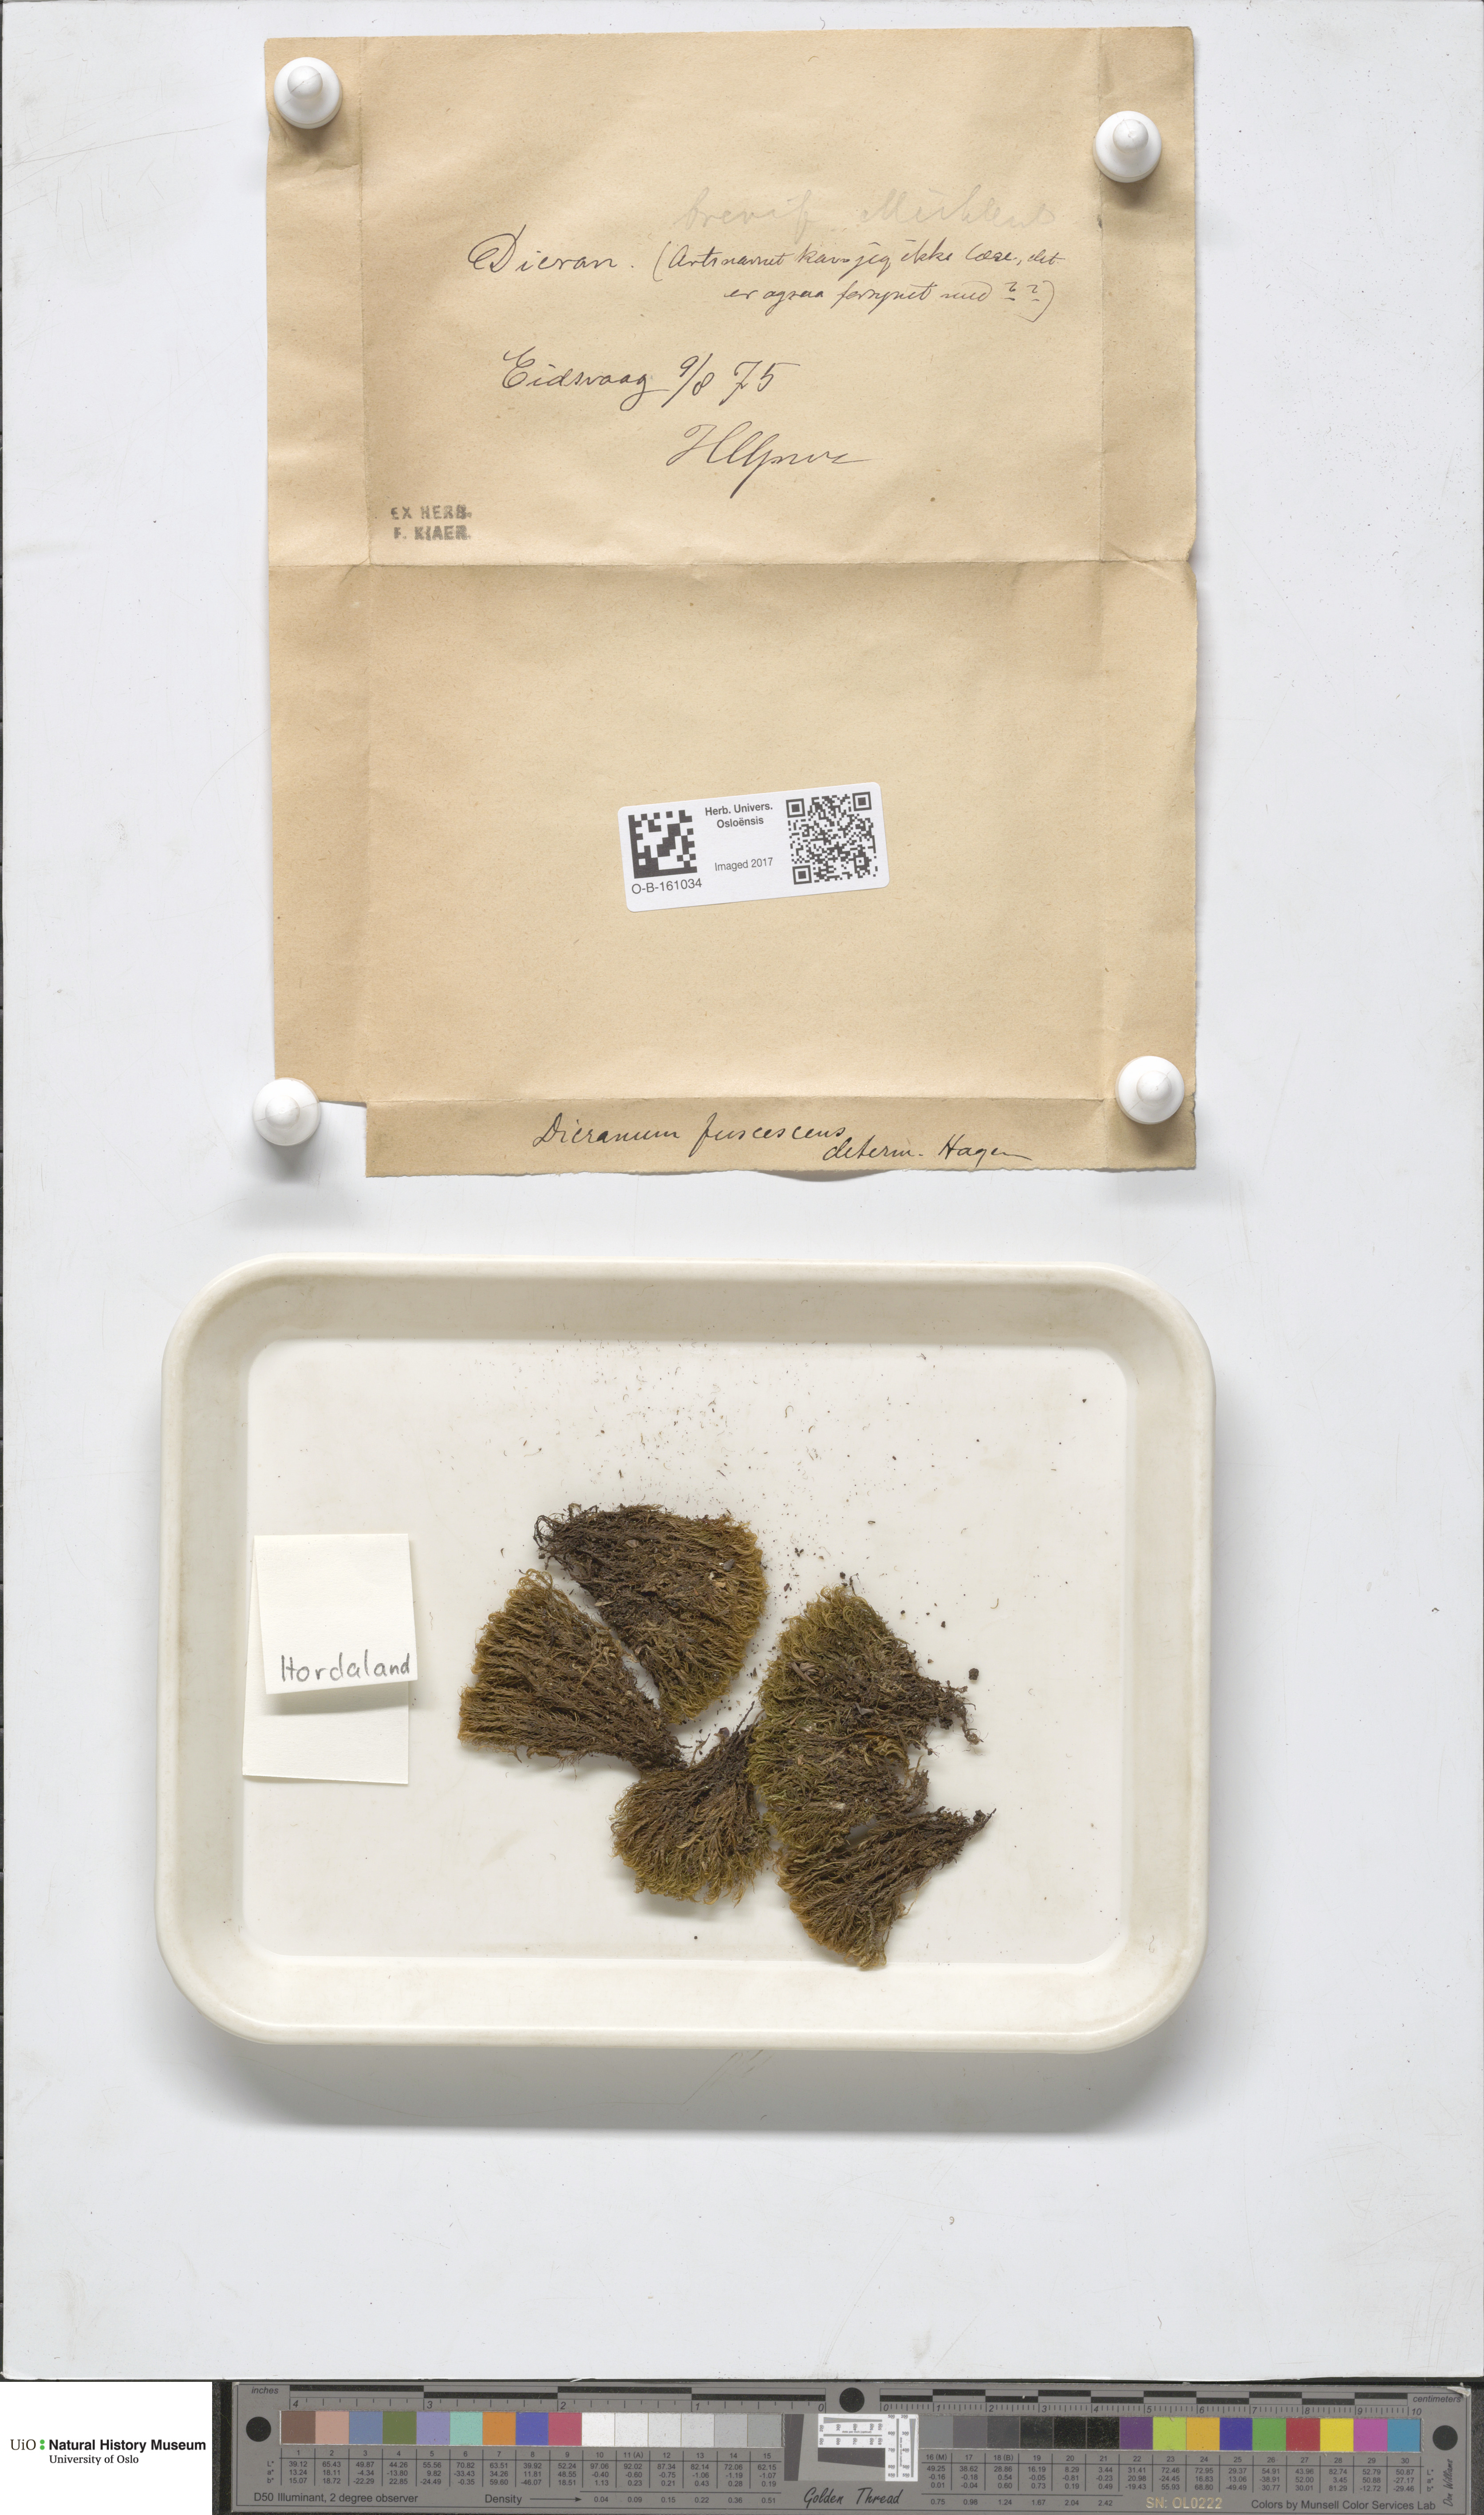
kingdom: Plantae
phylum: Bryophyta
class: Bryopsida
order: Dicranales
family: Dicranaceae
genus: Dicranum
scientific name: Dicranum fuscescens
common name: Curly heron's-bill moss
